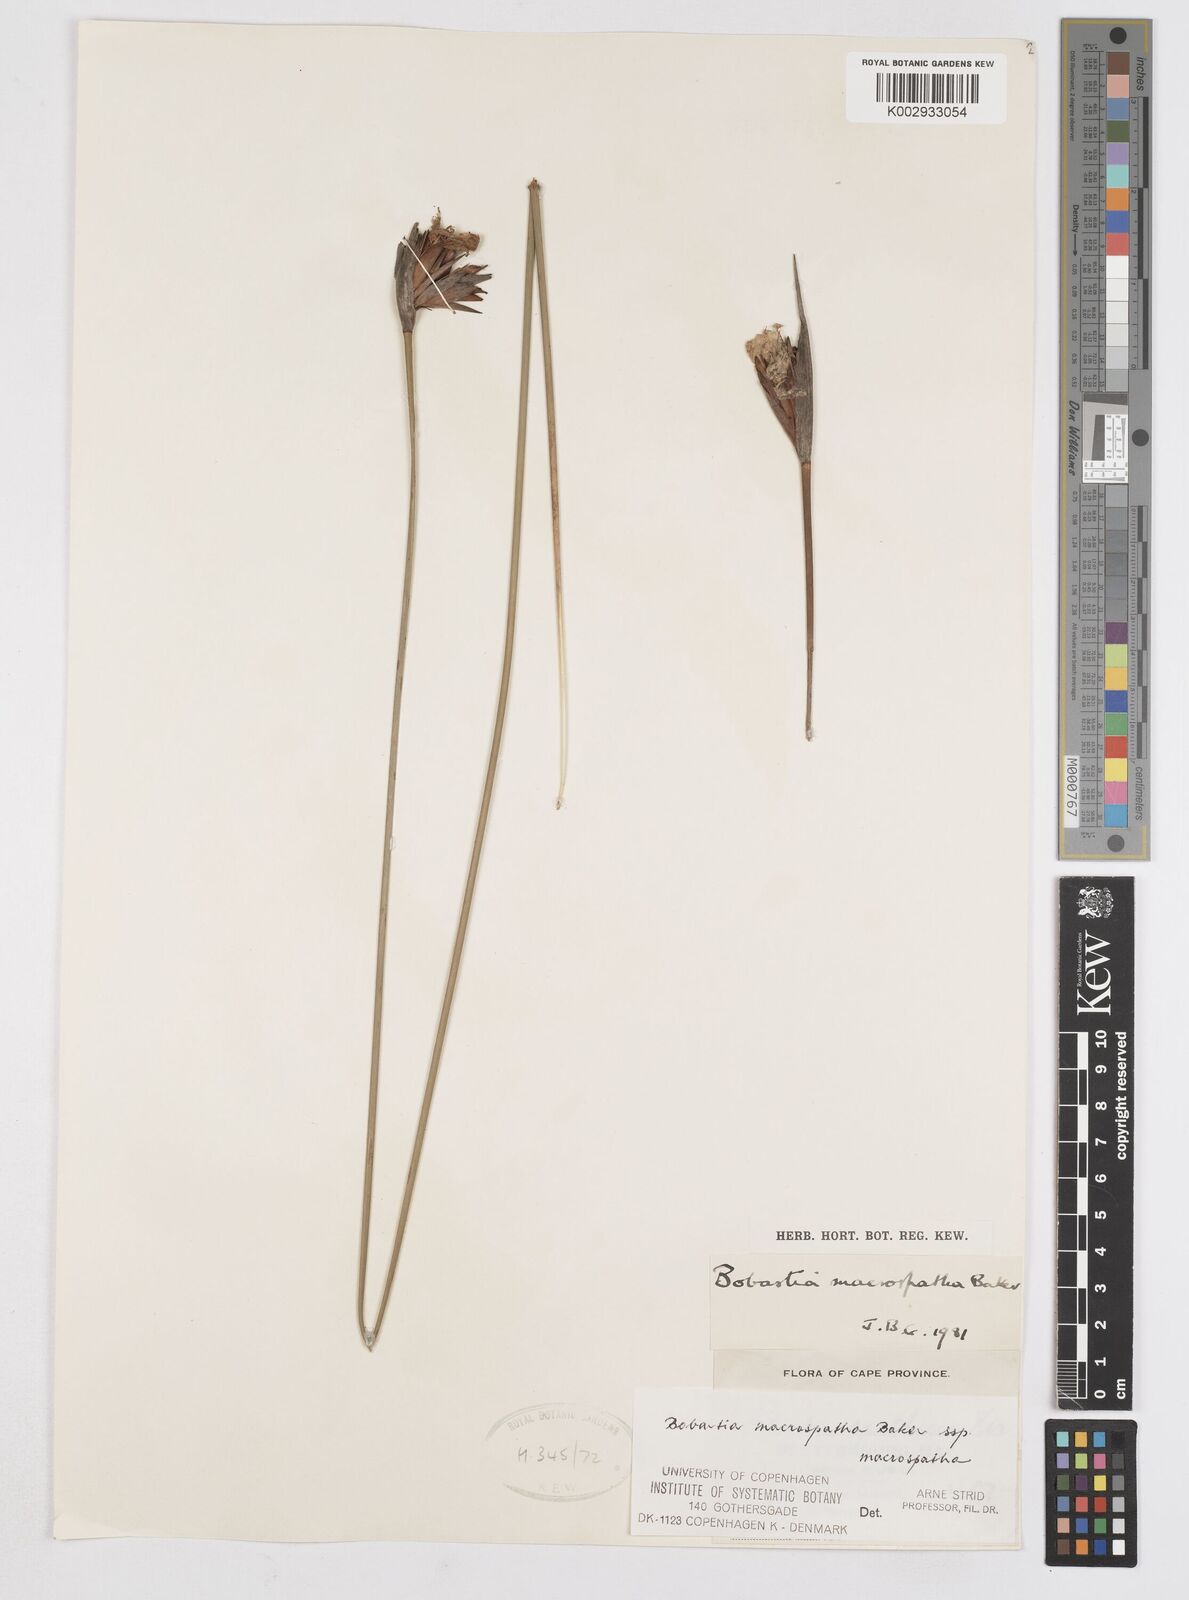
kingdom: Plantae
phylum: Tracheophyta
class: Liliopsida
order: Asparagales
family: Iridaceae
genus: Bobartia
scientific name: Bobartia macrospatha
